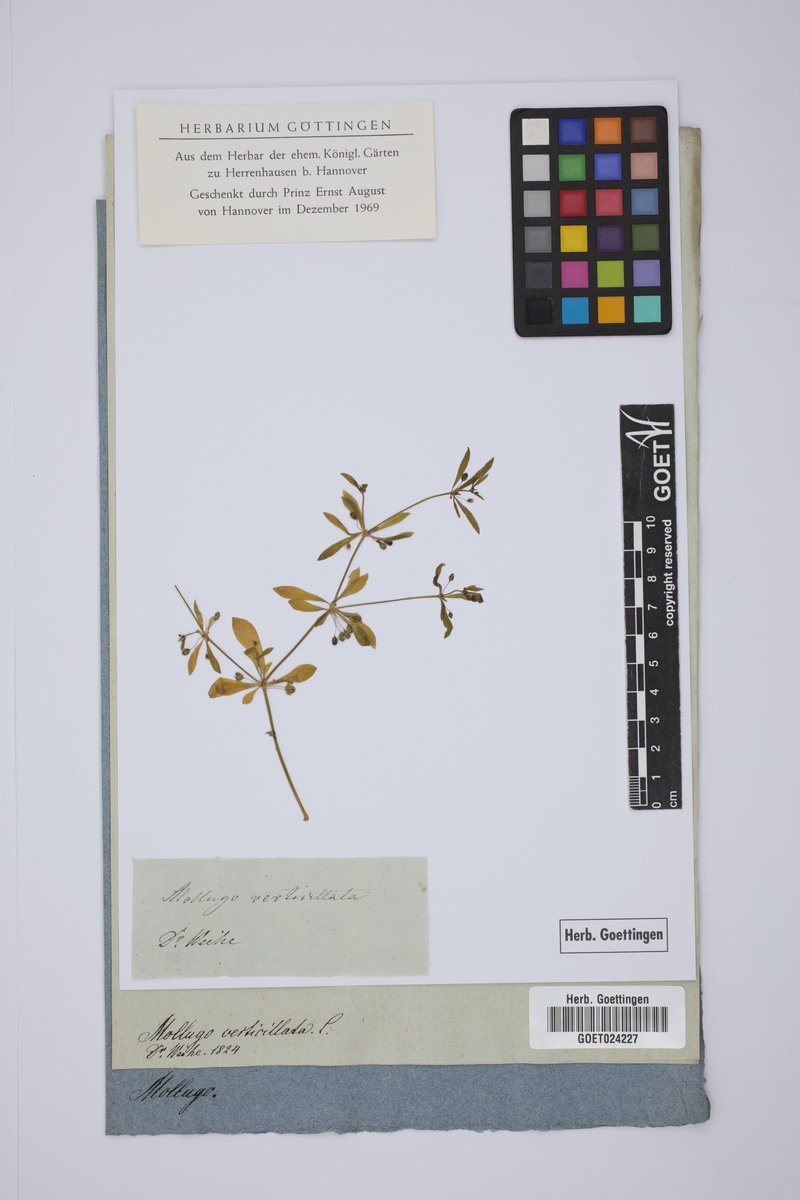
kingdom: Plantae
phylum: Tracheophyta
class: Magnoliopsida
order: Caryophyllales
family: Molluginaceae
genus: Mollugo
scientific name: Mollugo verticillata
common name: Green carpetweed
